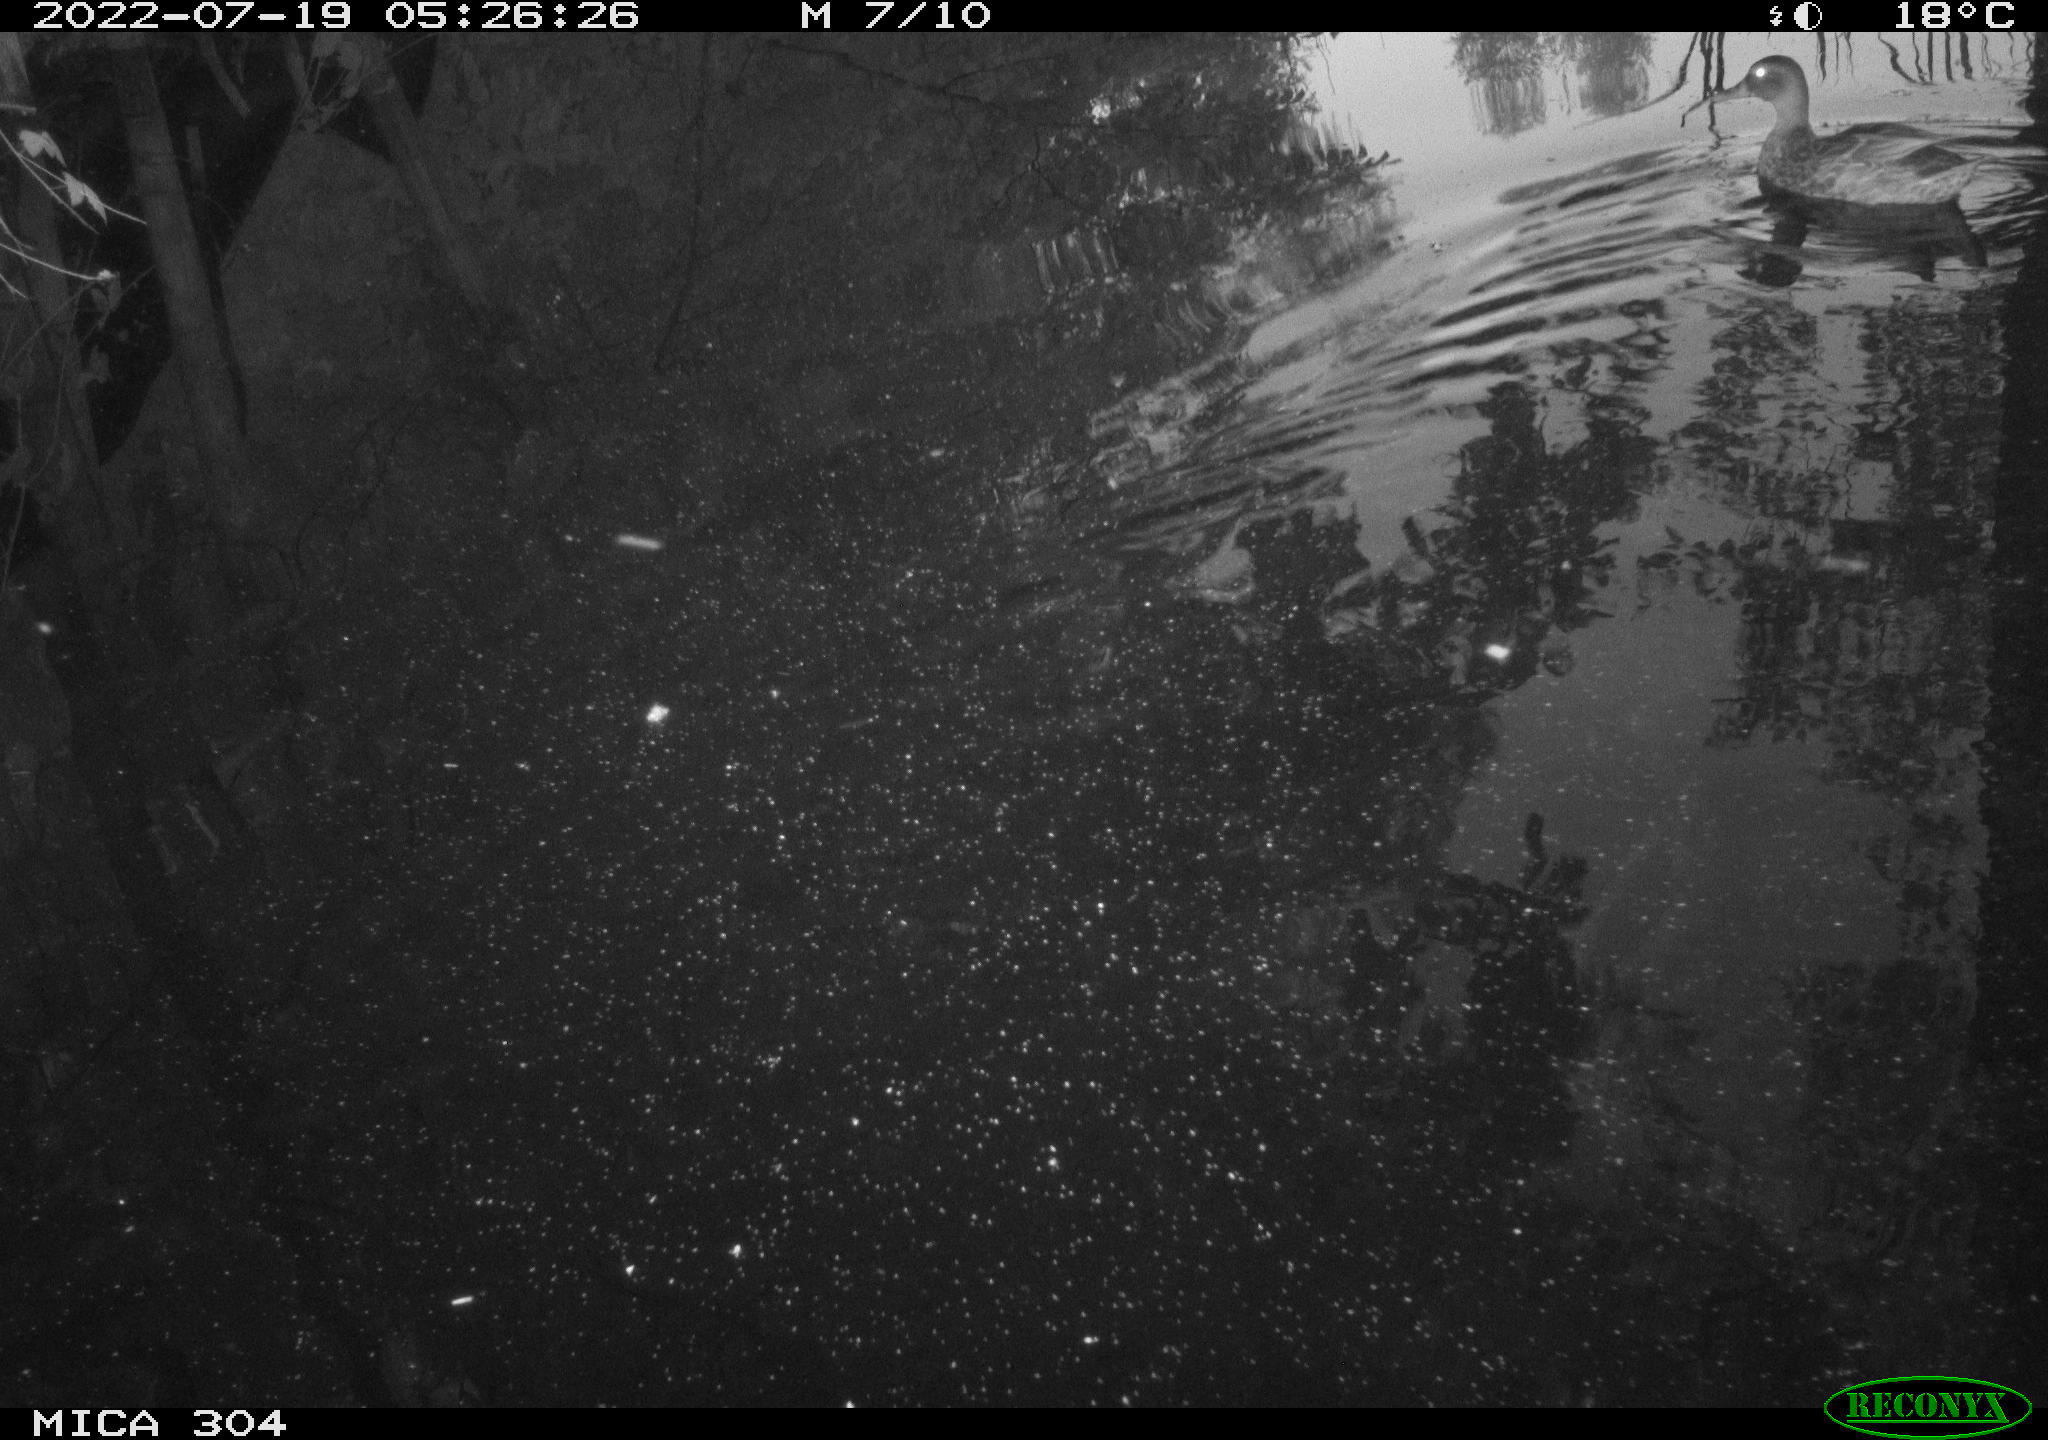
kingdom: Animalia
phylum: Chordata
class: Aves
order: Anseriformes
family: Anatidae
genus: Mareca
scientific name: Mareca strepera
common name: Gadwall
